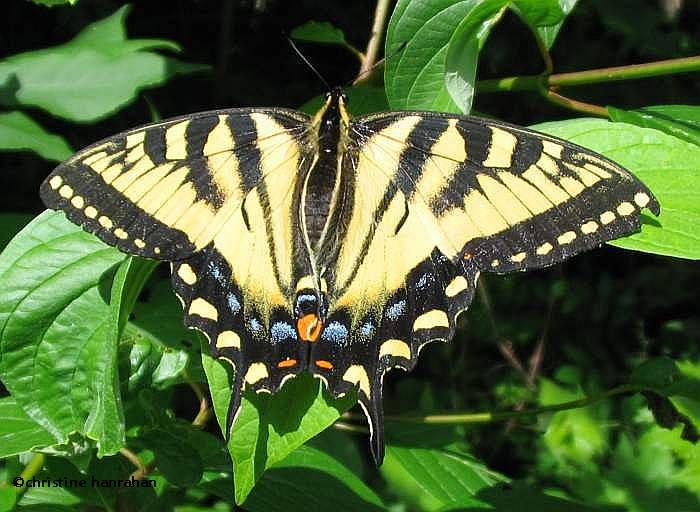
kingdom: Animalia
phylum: Arthropoda
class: Insecta
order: Lepidoptera
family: Papilionidae
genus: Pterourus
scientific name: Pterourus canadensis
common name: Canadian Tiger Swallowtail
